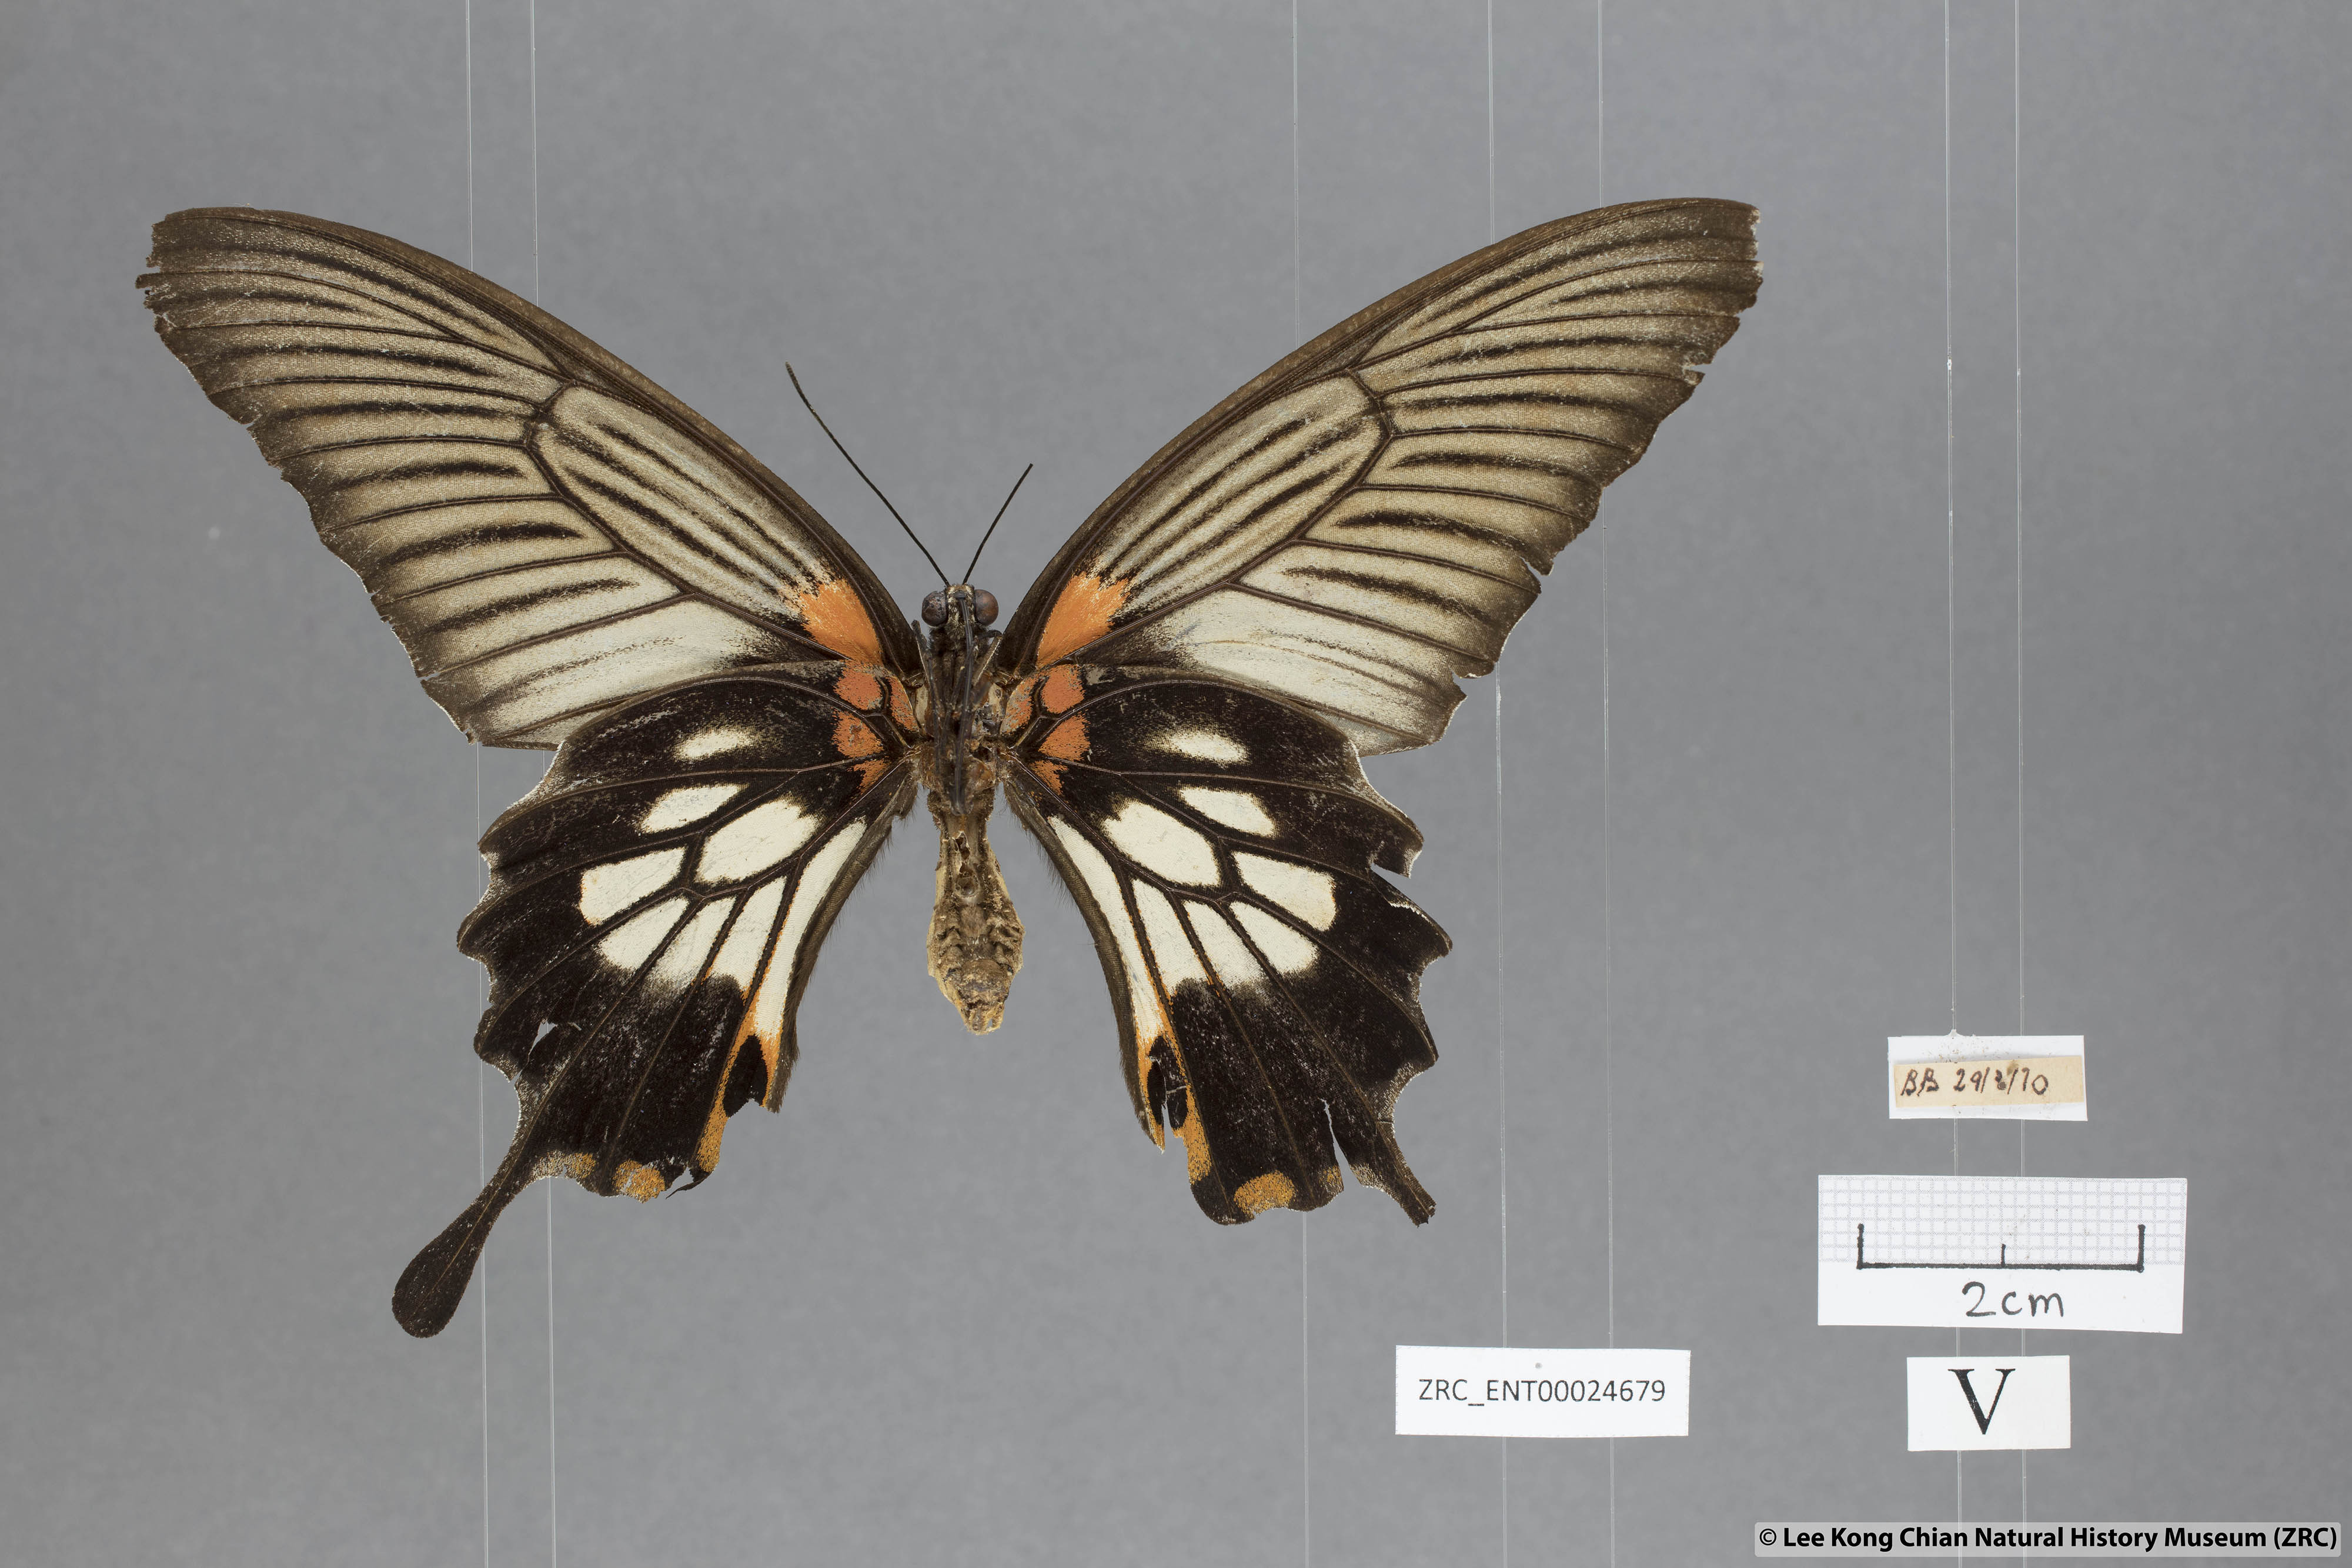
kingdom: Animalia
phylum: Arthropoda
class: Insecta
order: Lepidoptera
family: Papilionidae
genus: Papilio
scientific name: Papilio memnon
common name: Great mormon
